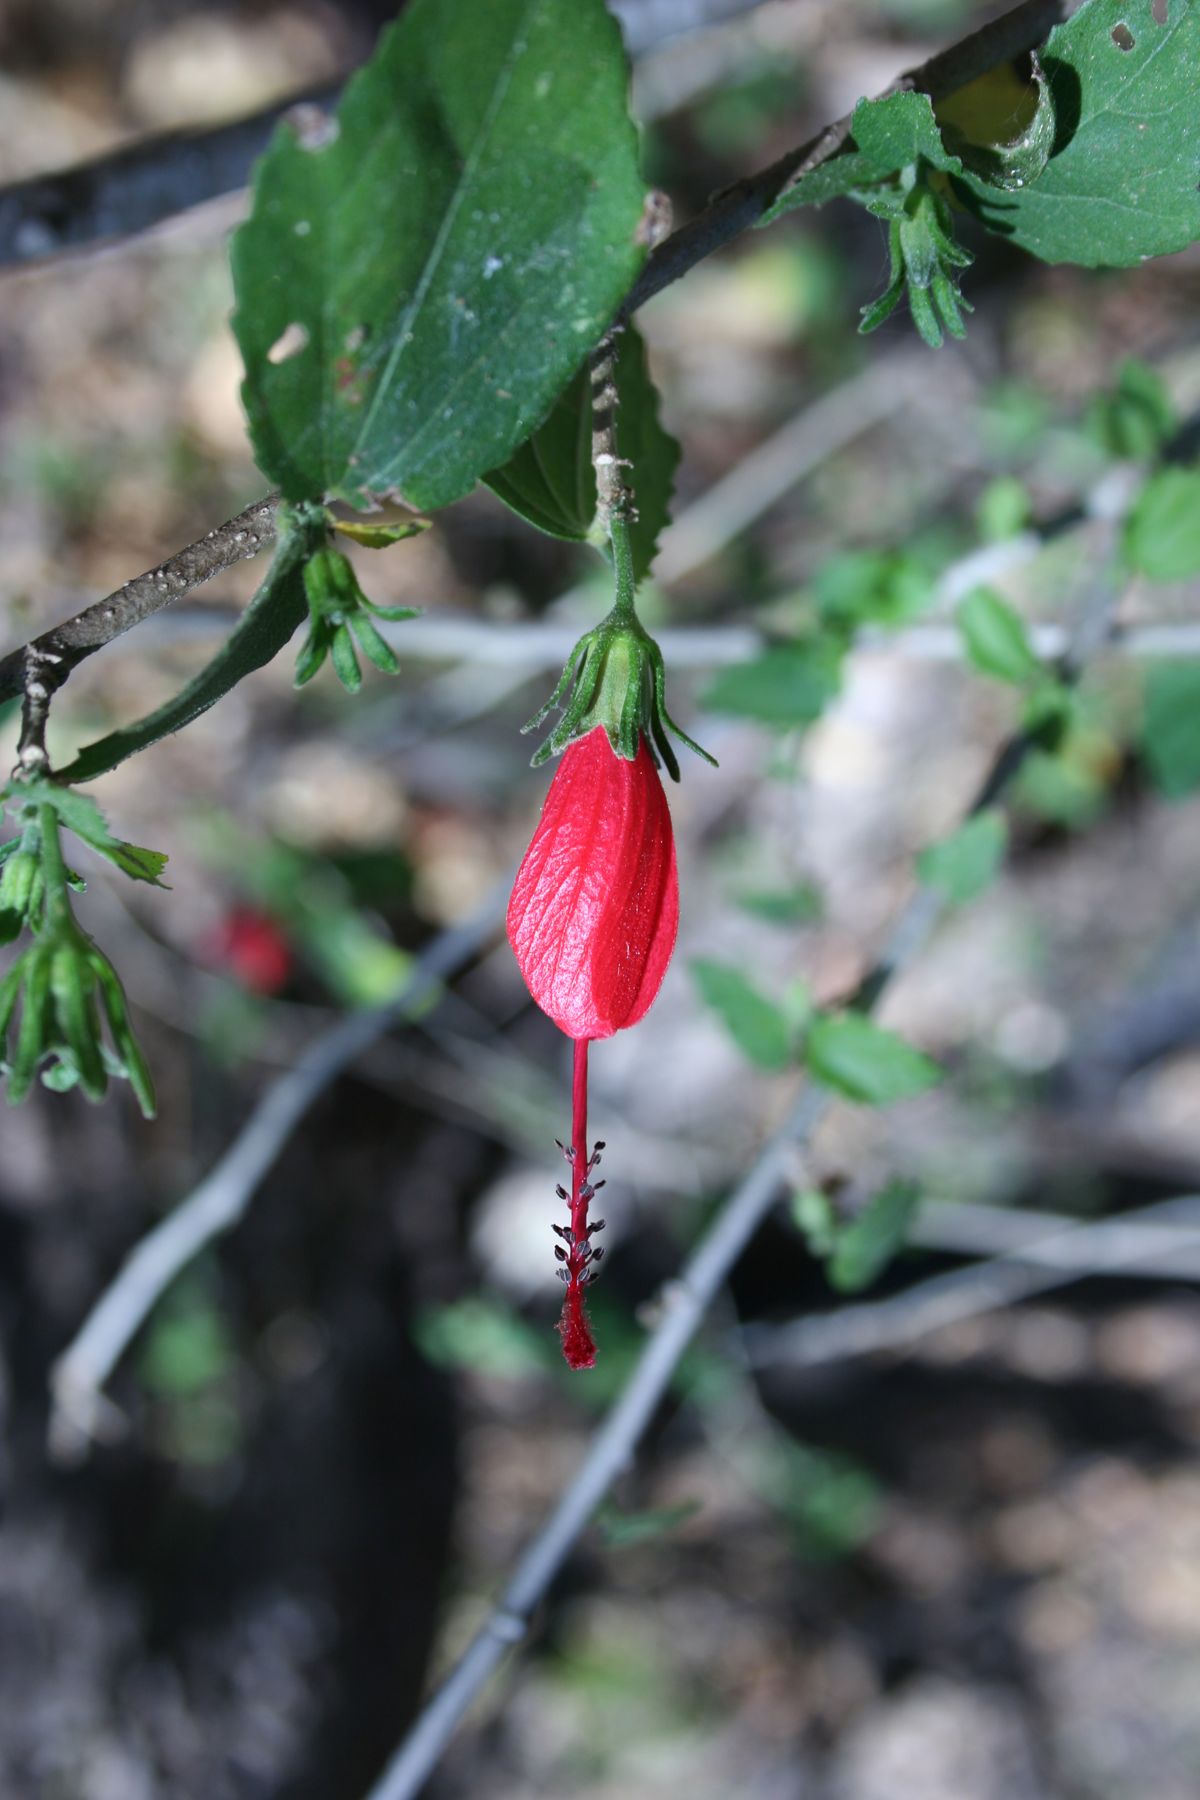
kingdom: Plantae
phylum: Tracheophyta
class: Magnoliopsida
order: Malvales
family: Malvaceae
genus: Malvaviscus
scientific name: Malvaviscus arboreus
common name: Wax mallow
